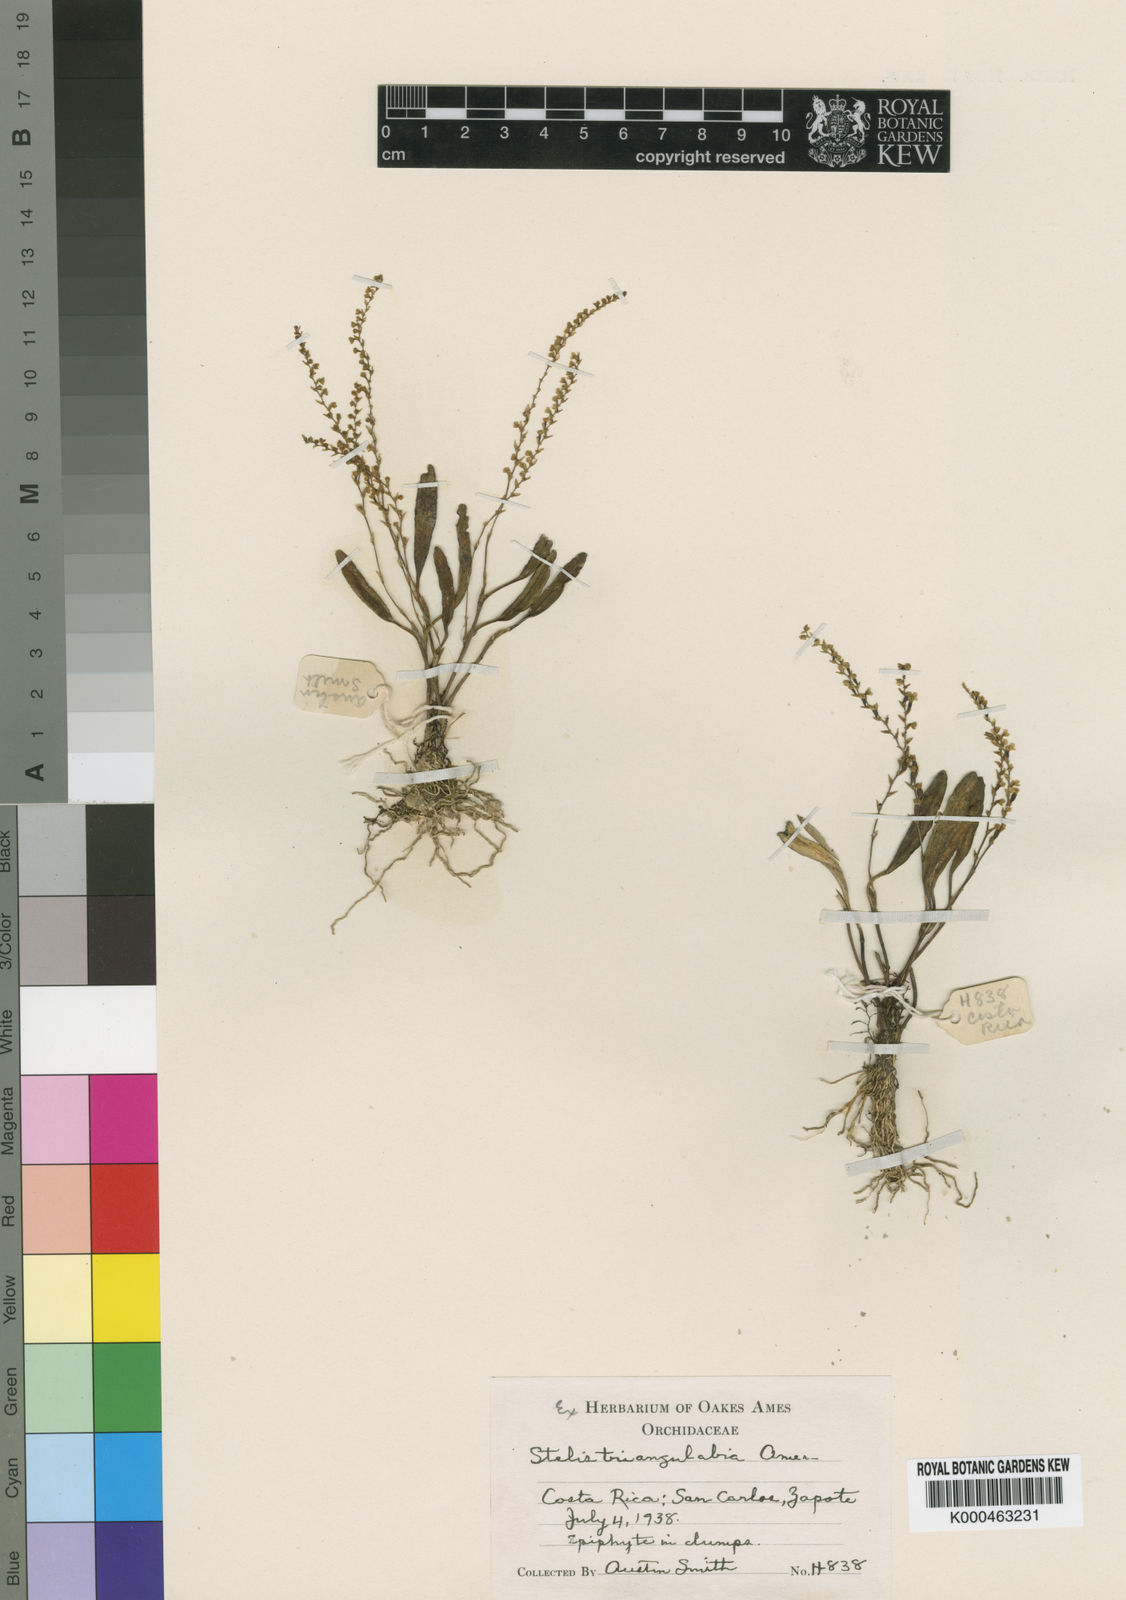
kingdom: Plantae
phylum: Tracheophyta
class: Liliopsida
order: Asparagales
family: Orchidaceae
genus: Stelis
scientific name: Stelis triangulabia
